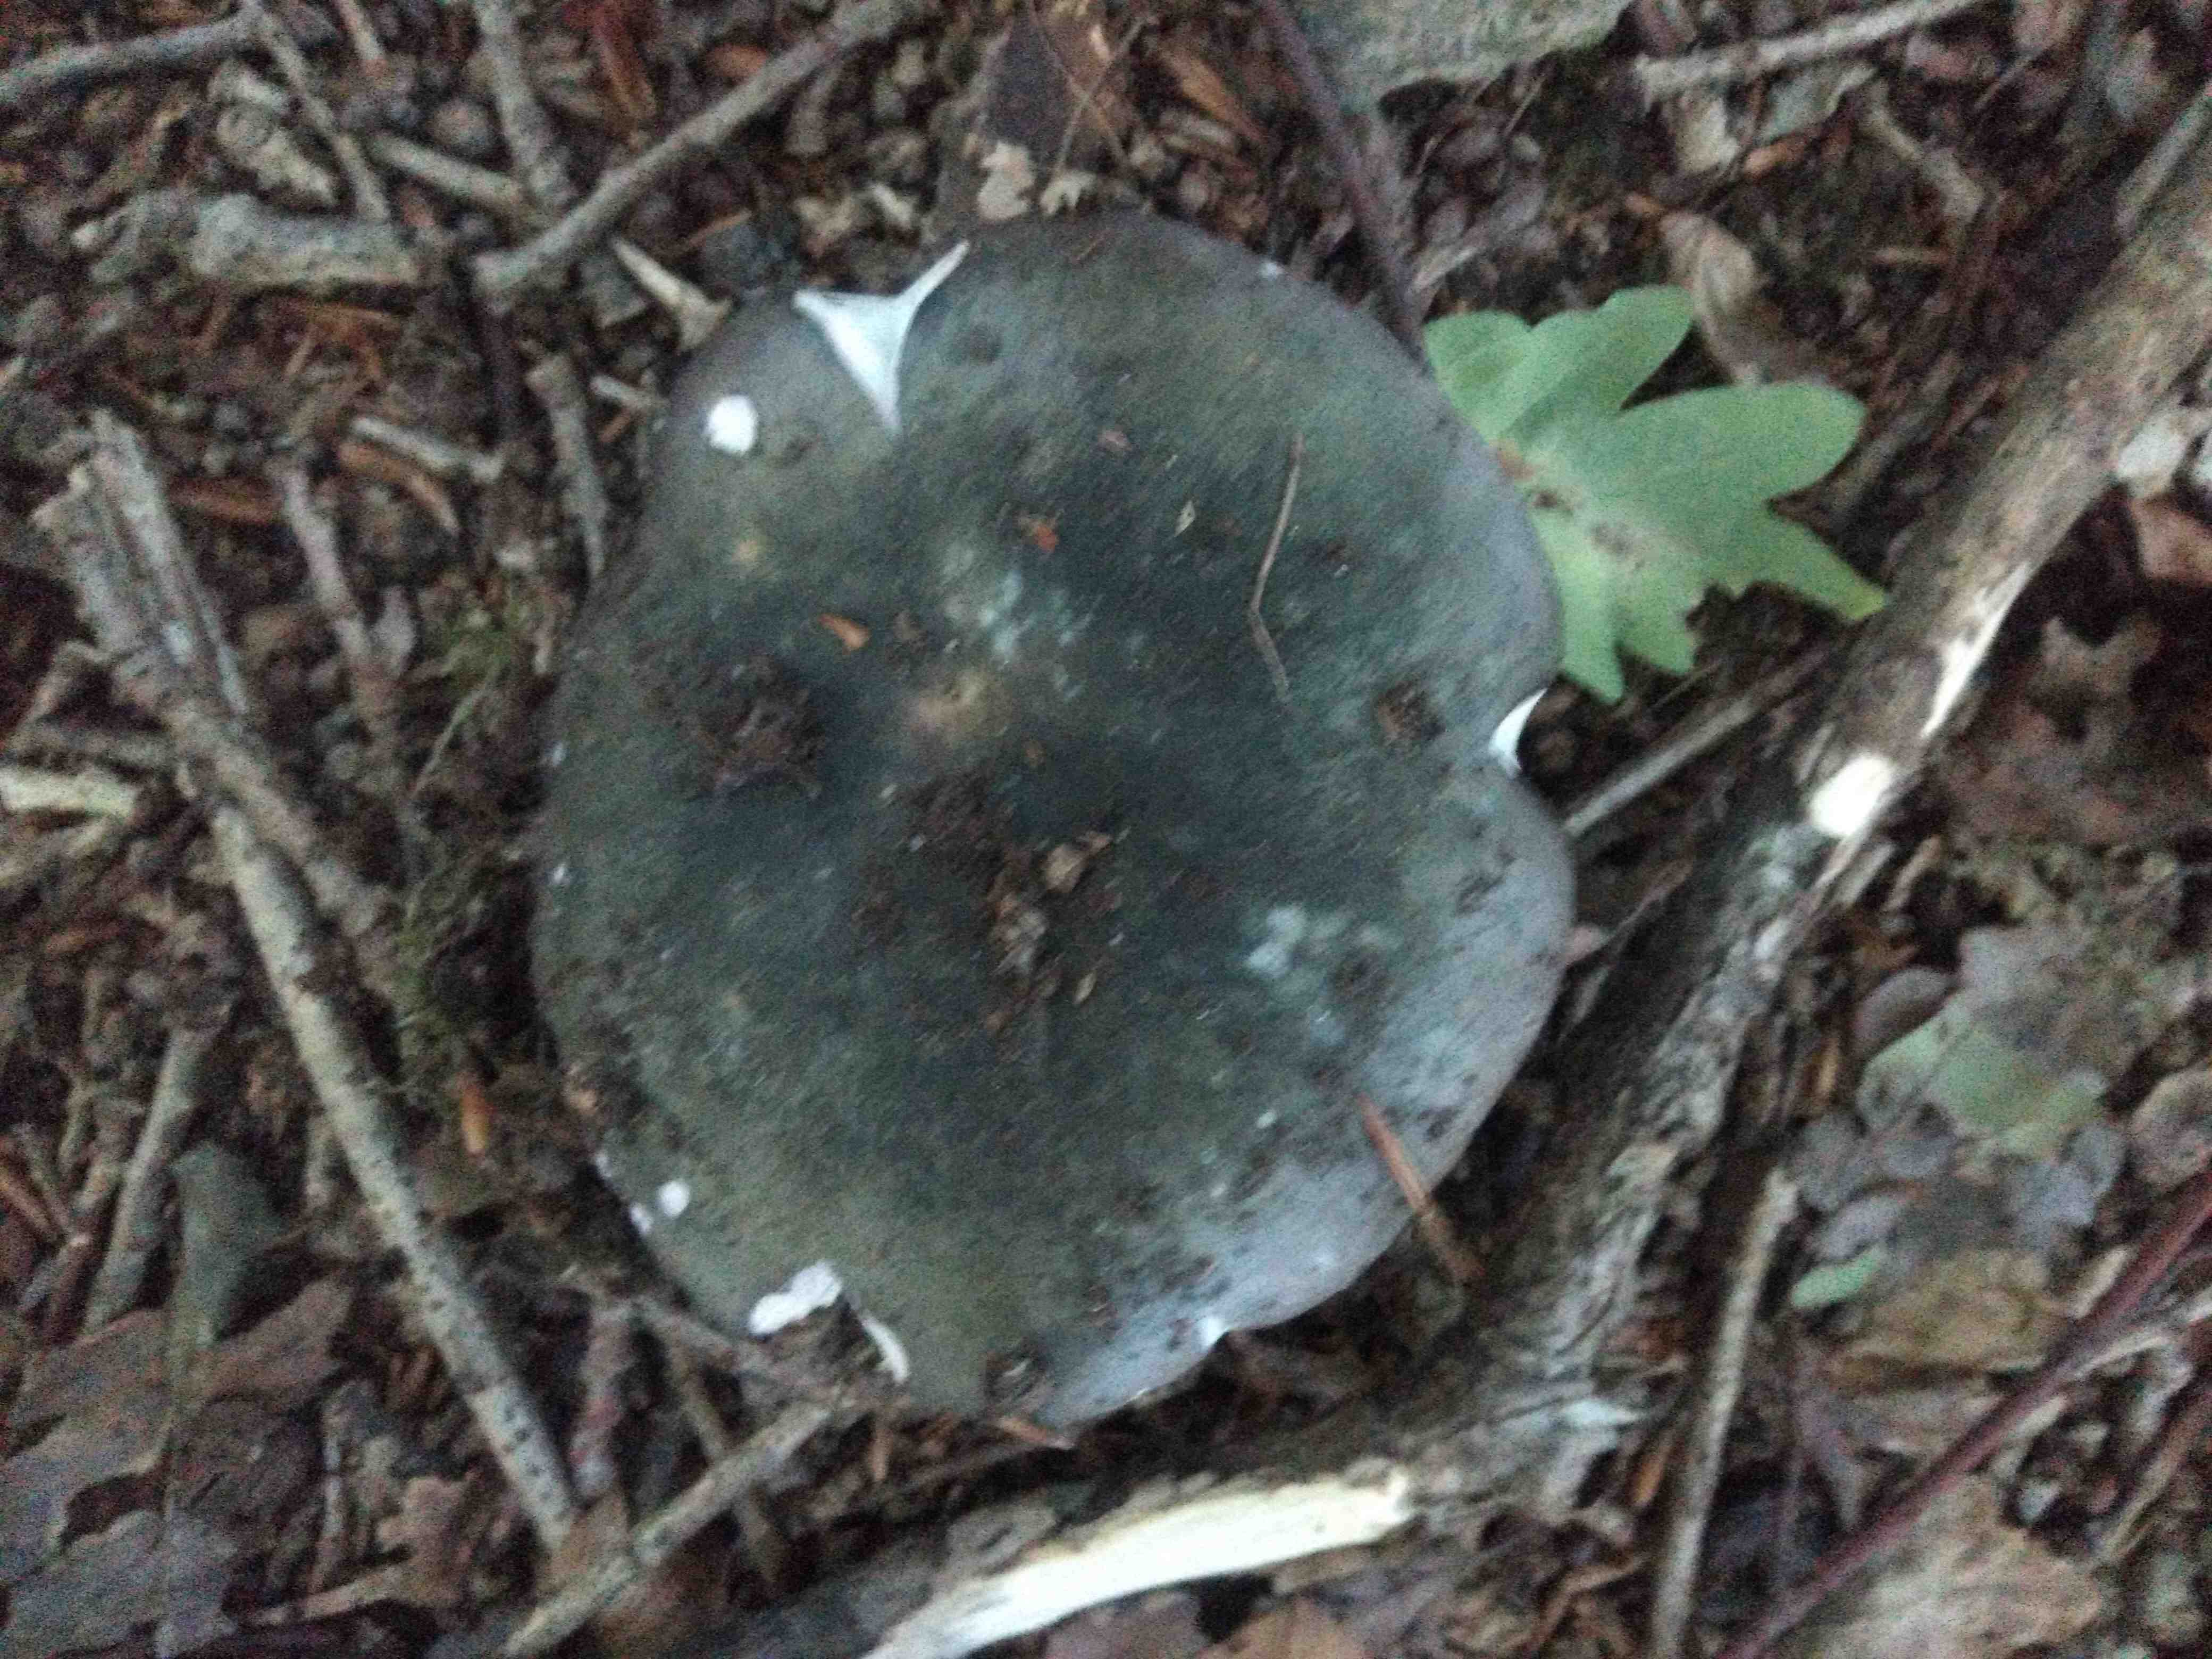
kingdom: Fungi
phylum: Basidiomycota
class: Agaricomycetes
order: Russulales
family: Russulaceae
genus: Russula
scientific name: Russula
